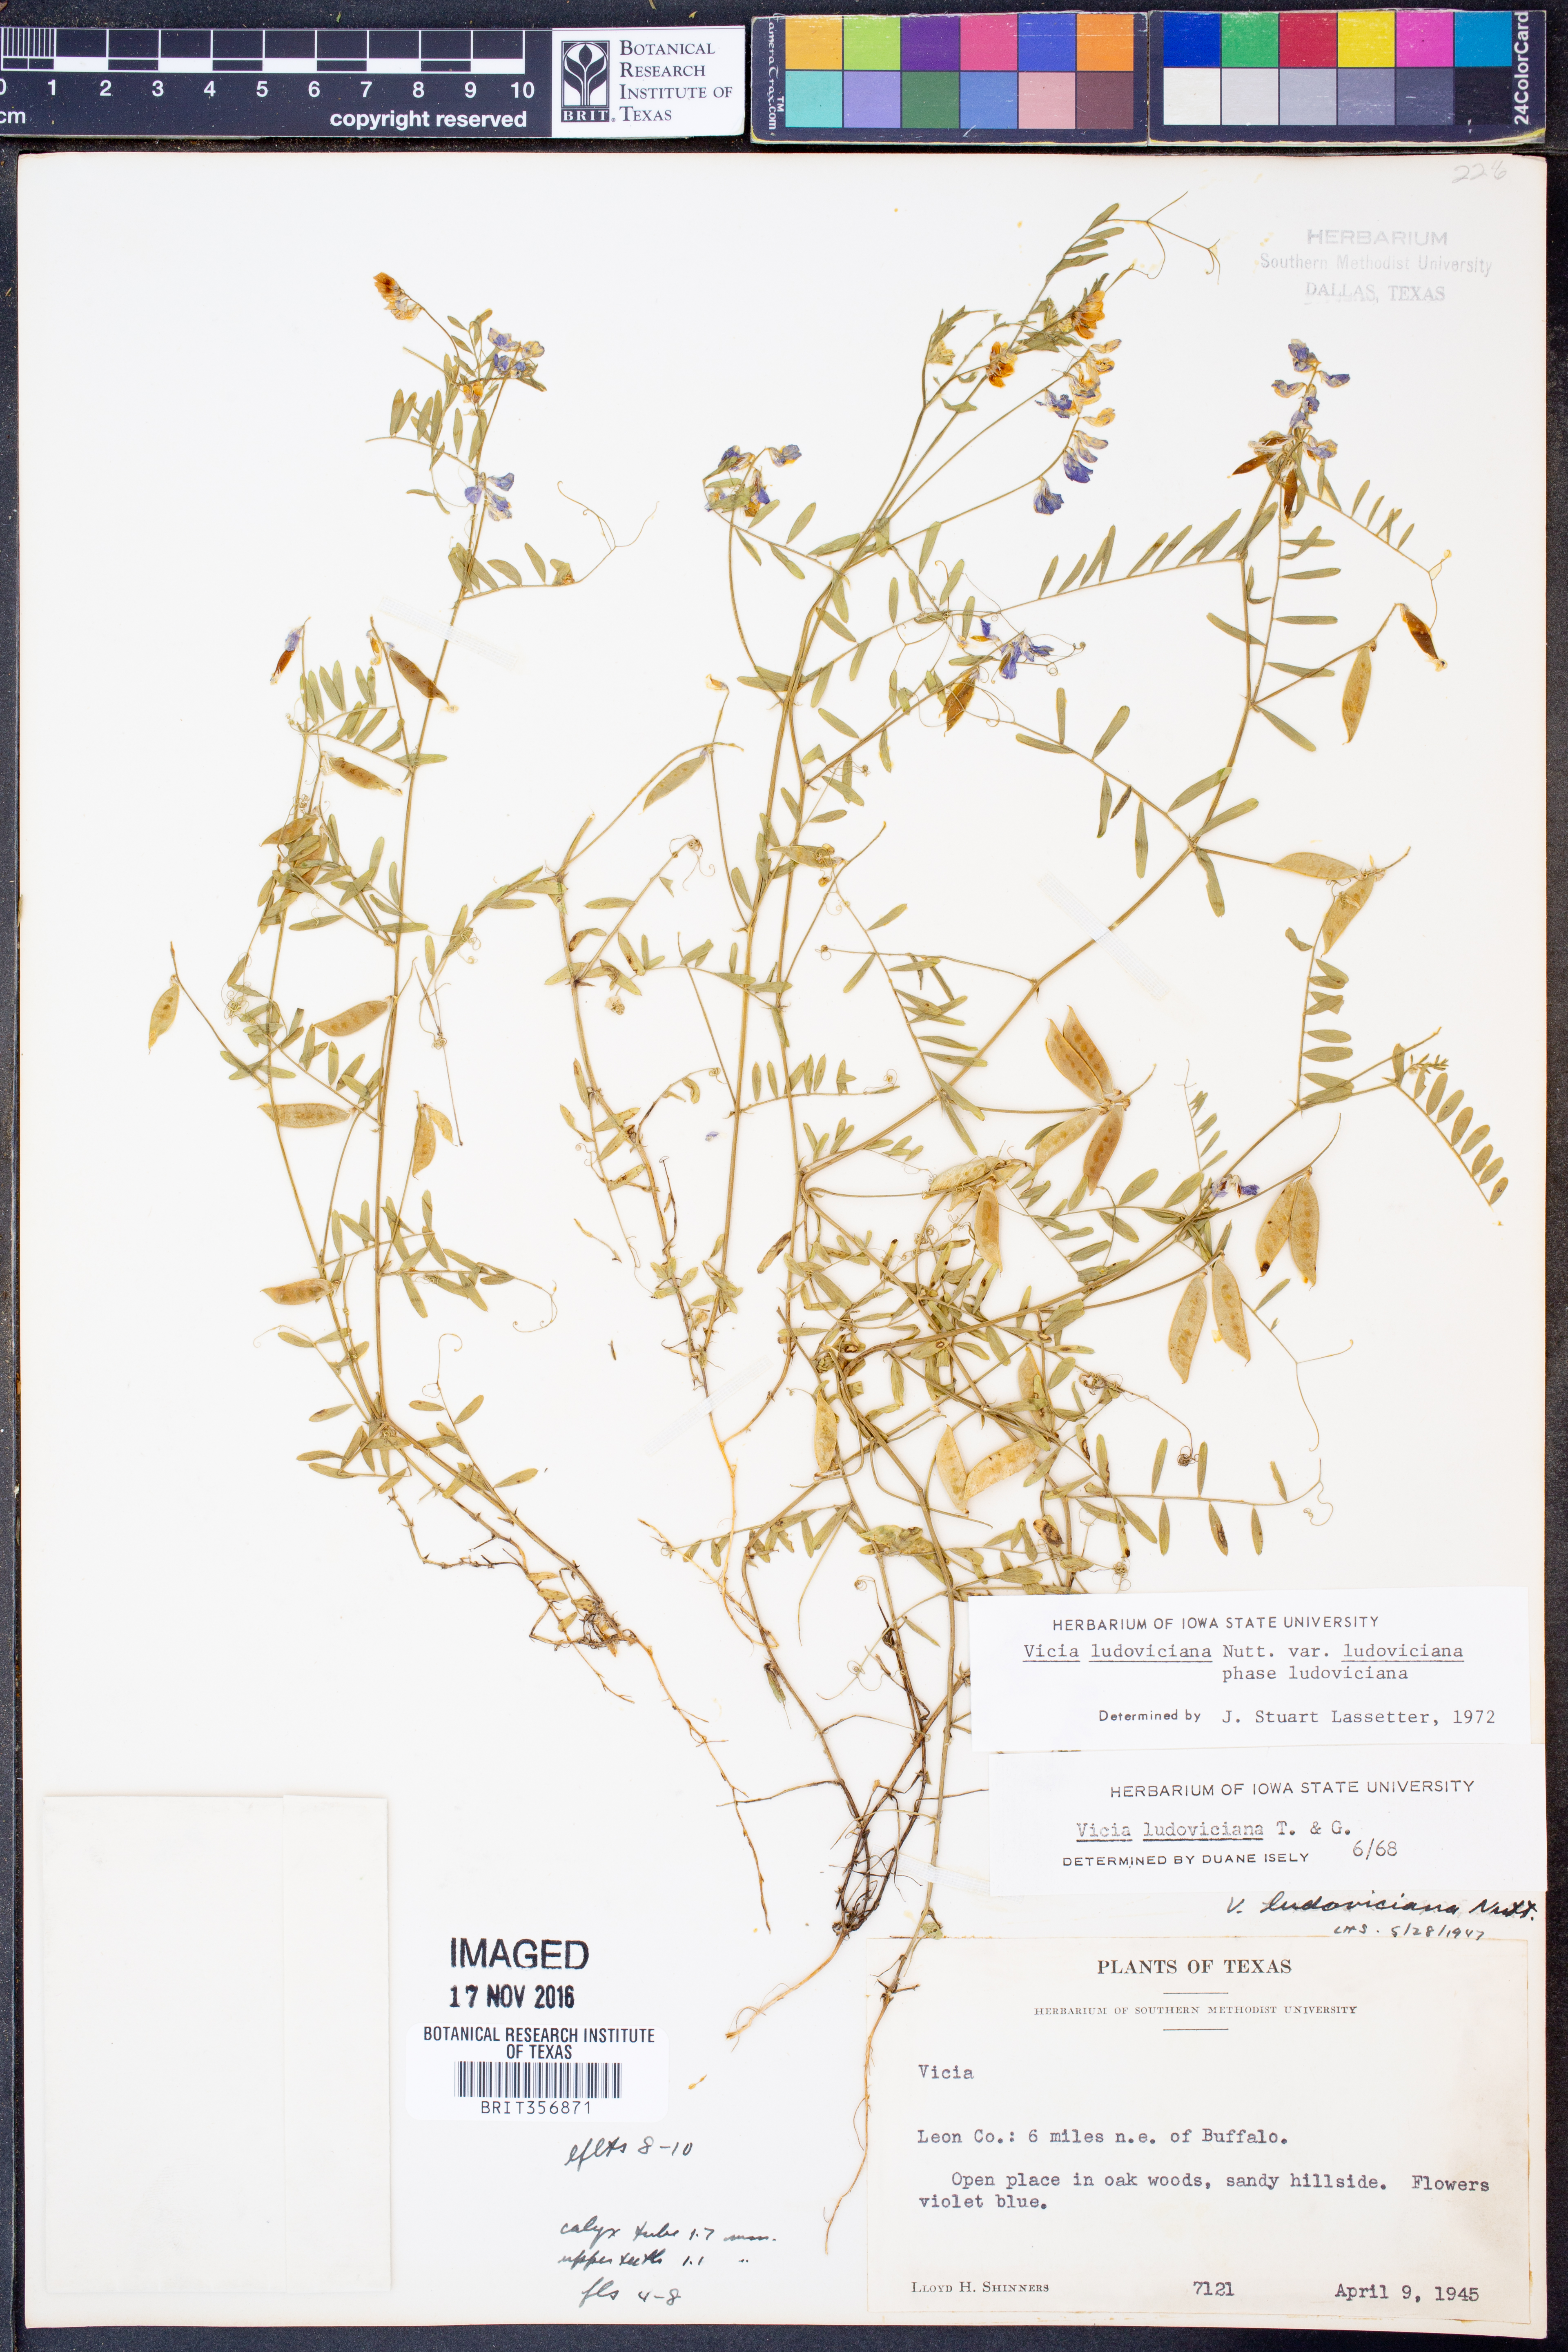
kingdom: Plantae
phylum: Tracheophyta
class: Magnoliopsida
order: Fabales
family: Fabaceae
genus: Vicia
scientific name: Vicia ludoviciana
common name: Louisiana vetch
